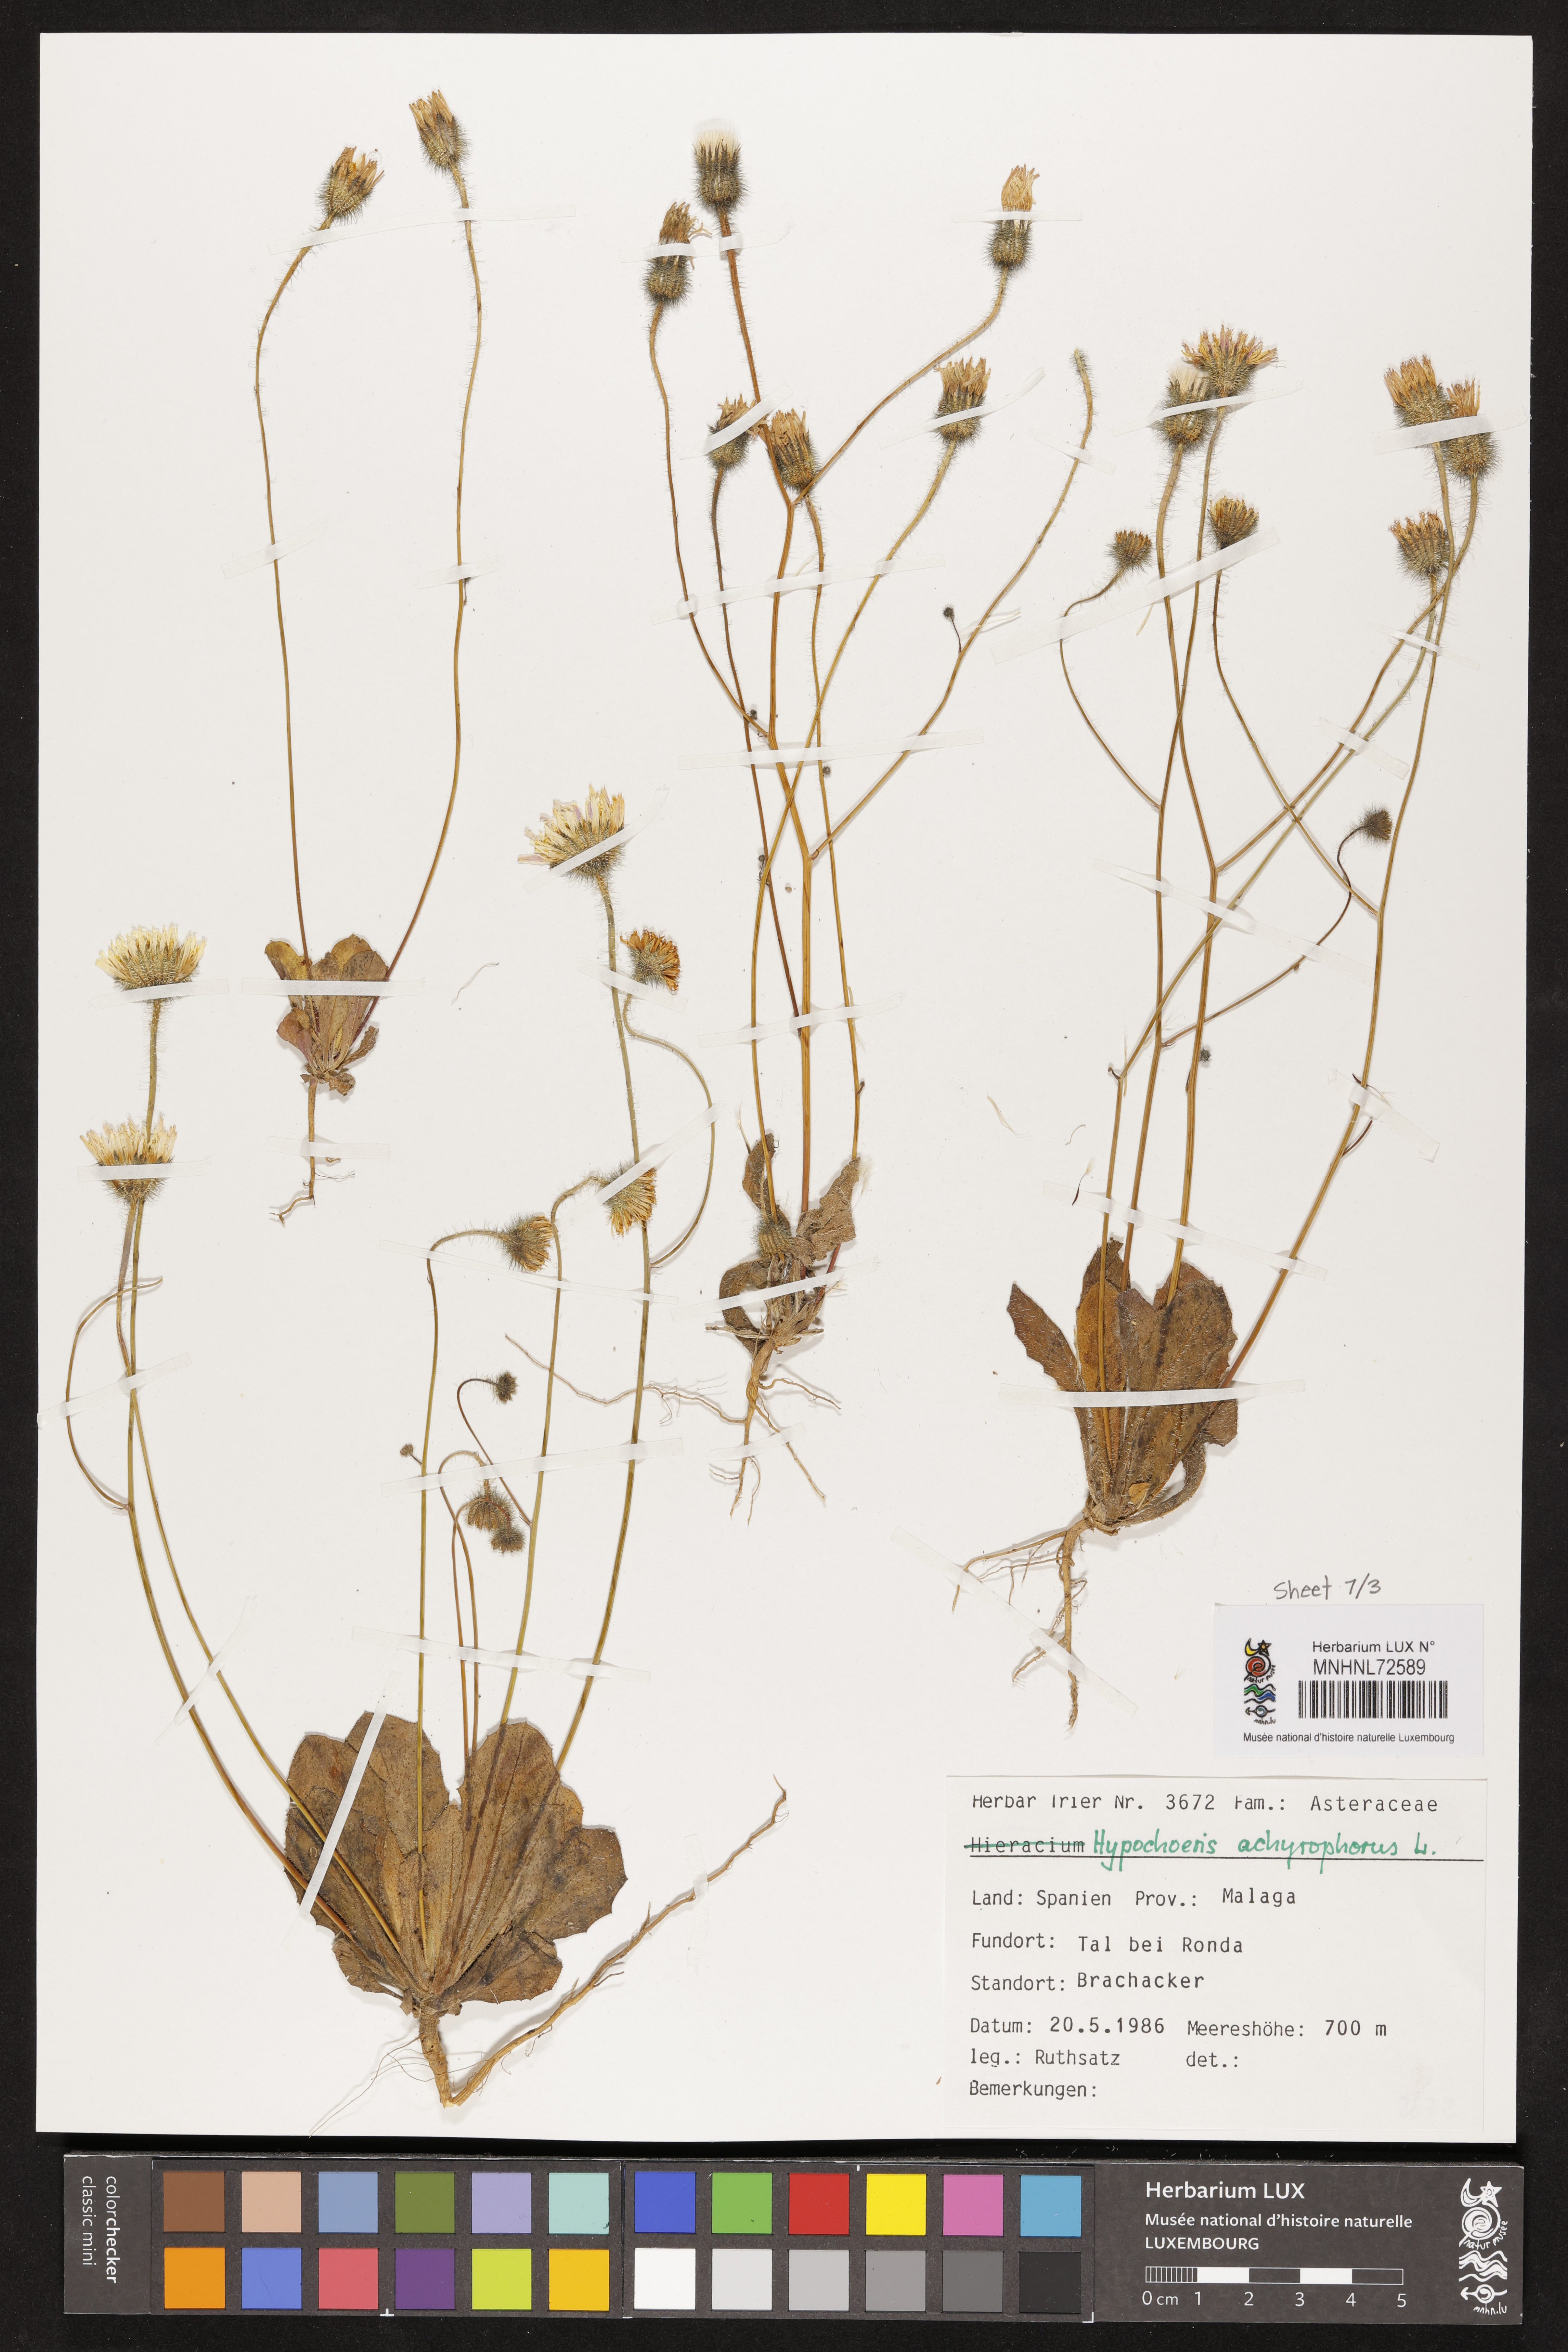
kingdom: Plantae
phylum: Tracheophyta
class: Magnoliopsida
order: Asterales
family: Asteraceae
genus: Achyrophorus
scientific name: Achyrophorus valdesii
